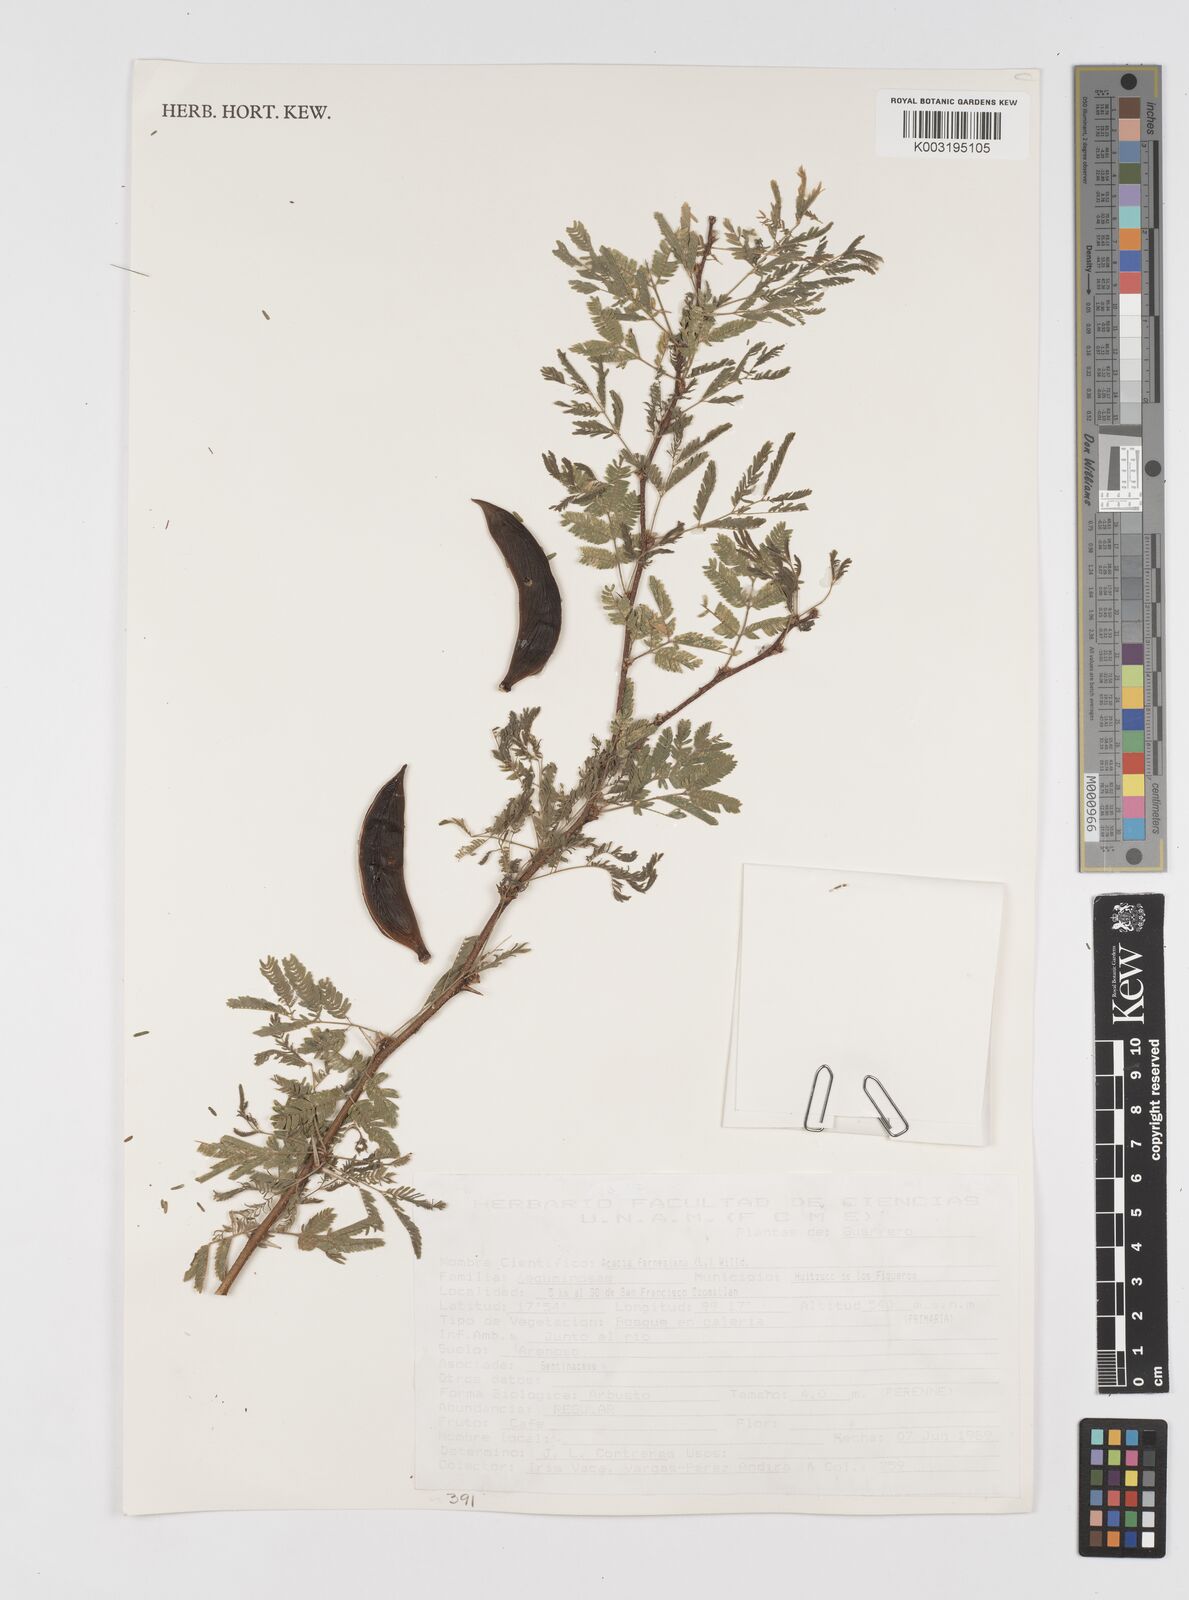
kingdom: Plantae
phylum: Tracheophyta
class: Magnoliopsida
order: Fabales
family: Fabaceae
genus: Vachellia
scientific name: Vachellia farnesiana
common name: Sweet acacia
